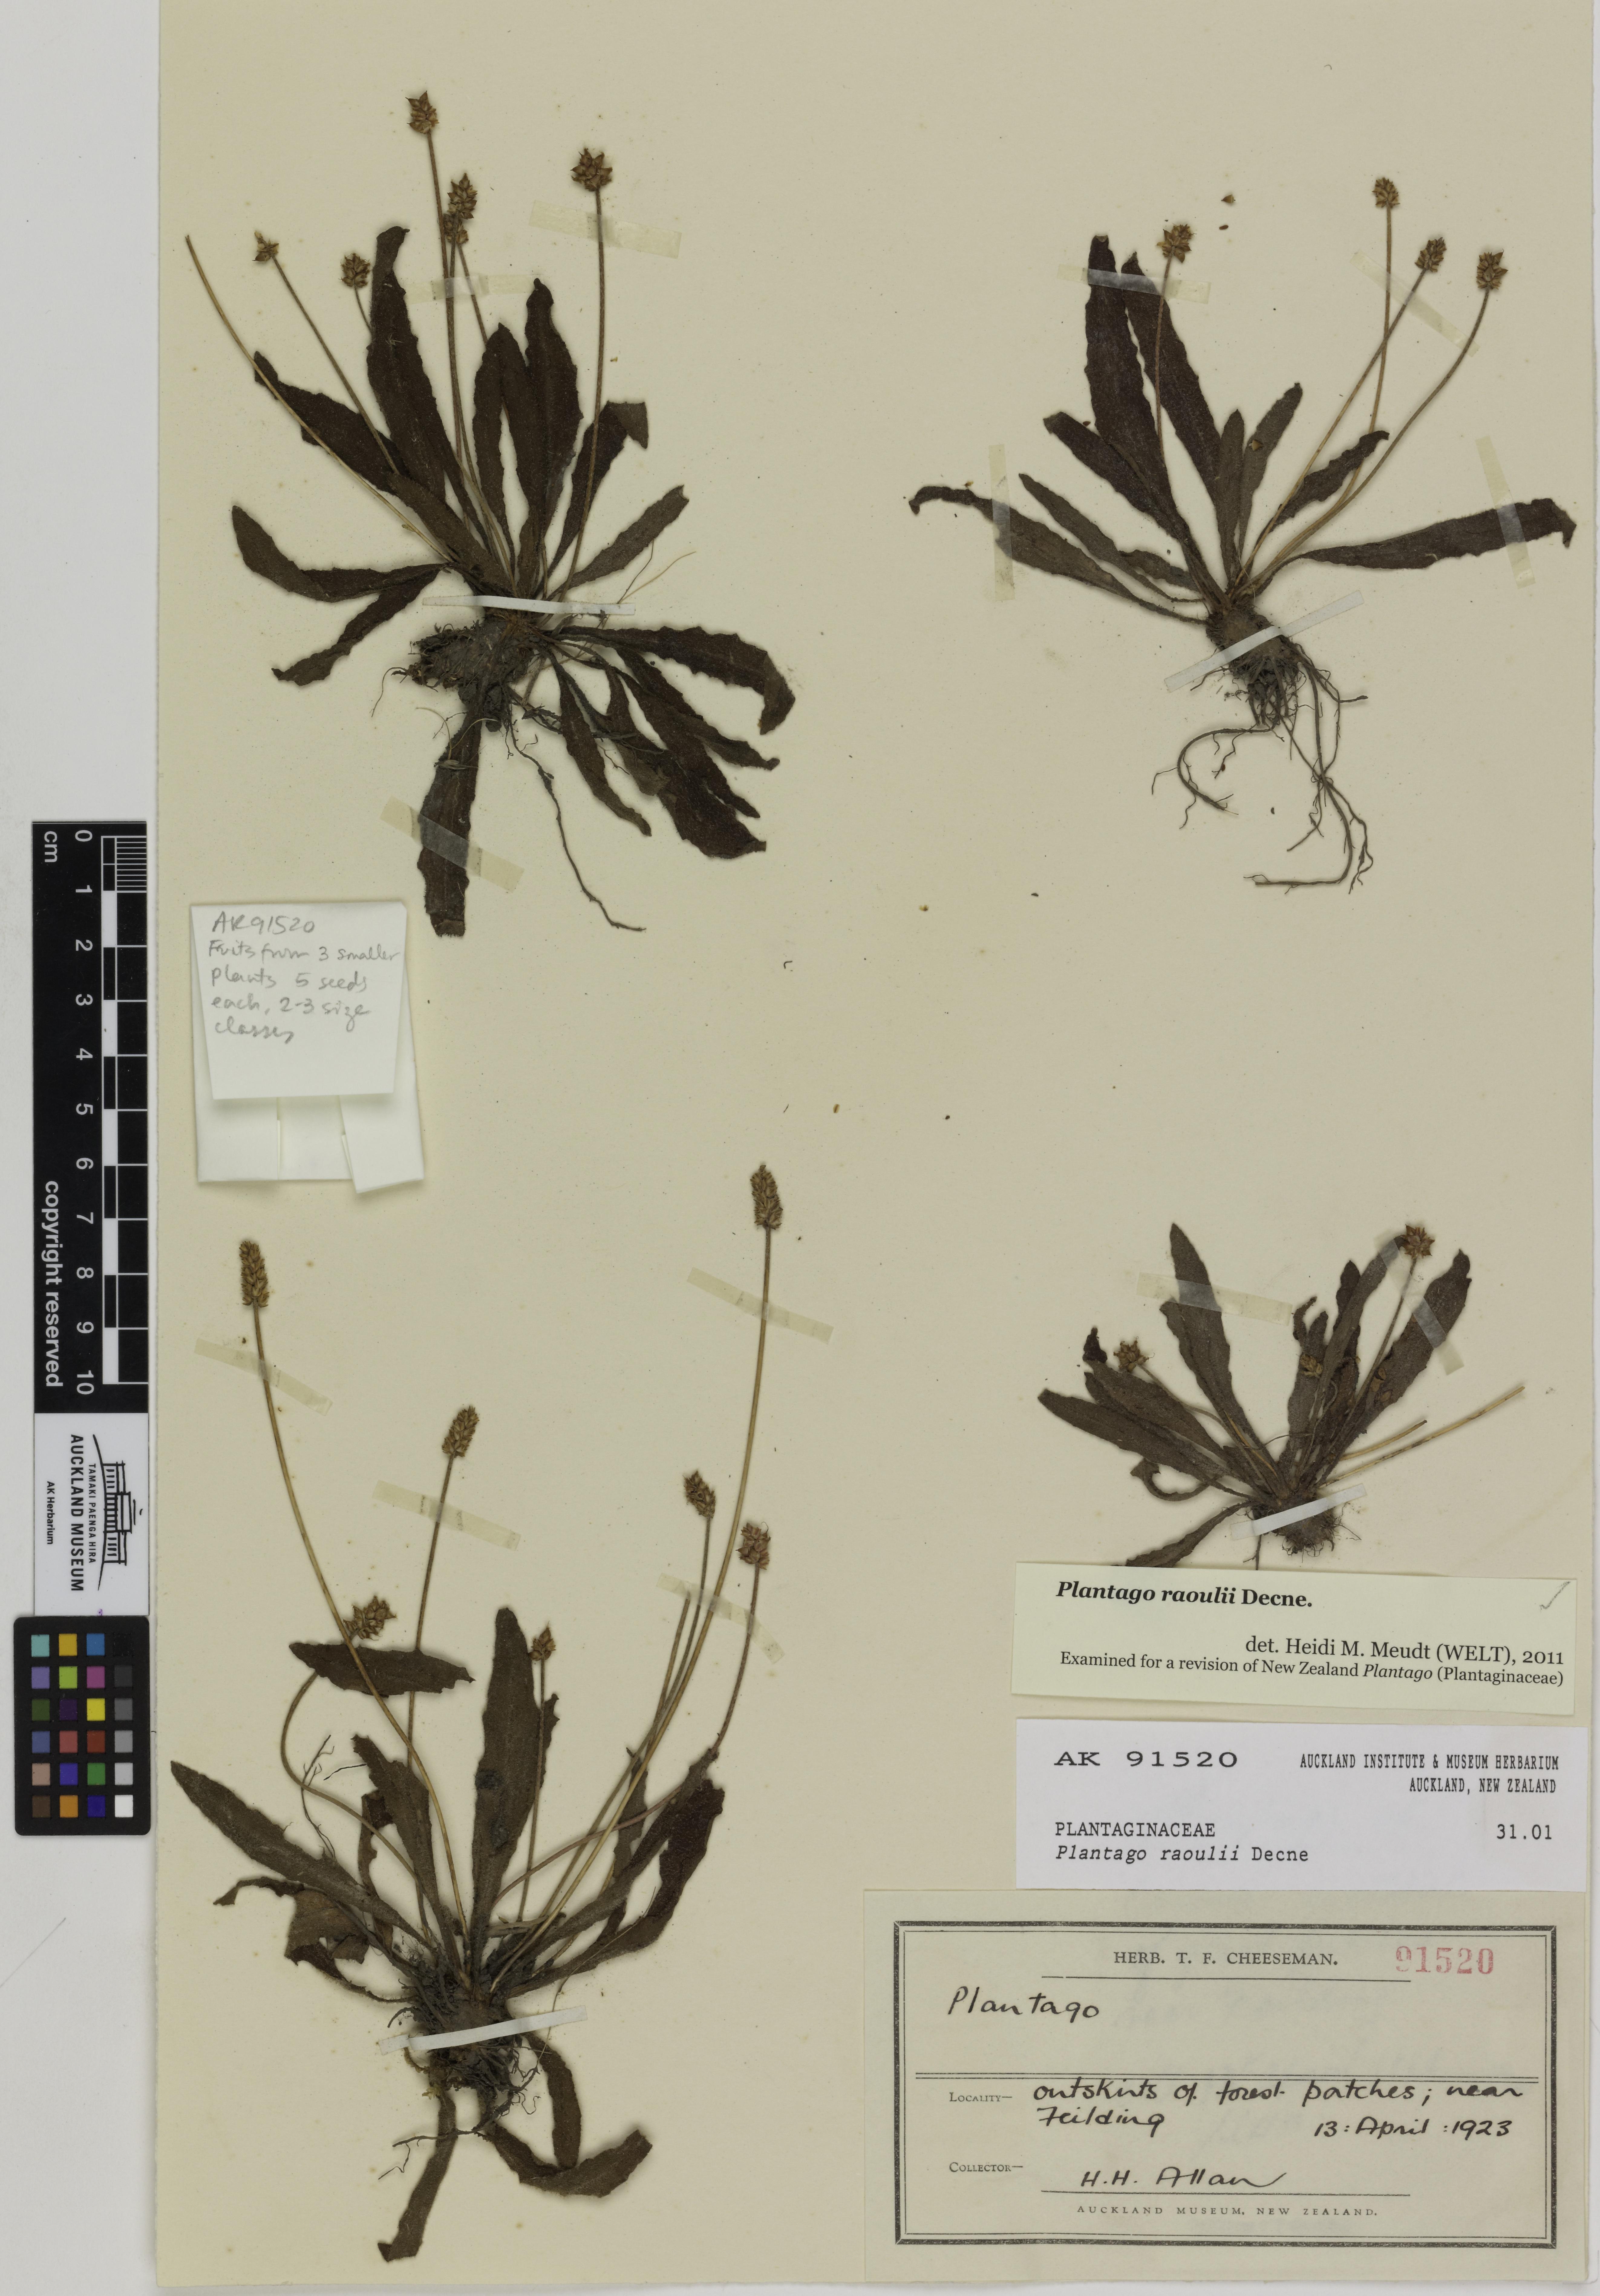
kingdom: Plantae
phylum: Tracheophyta
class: Magnoliopsida
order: Lamiales
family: Plantaginaceae
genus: Plantago
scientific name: Plantago raoulii
